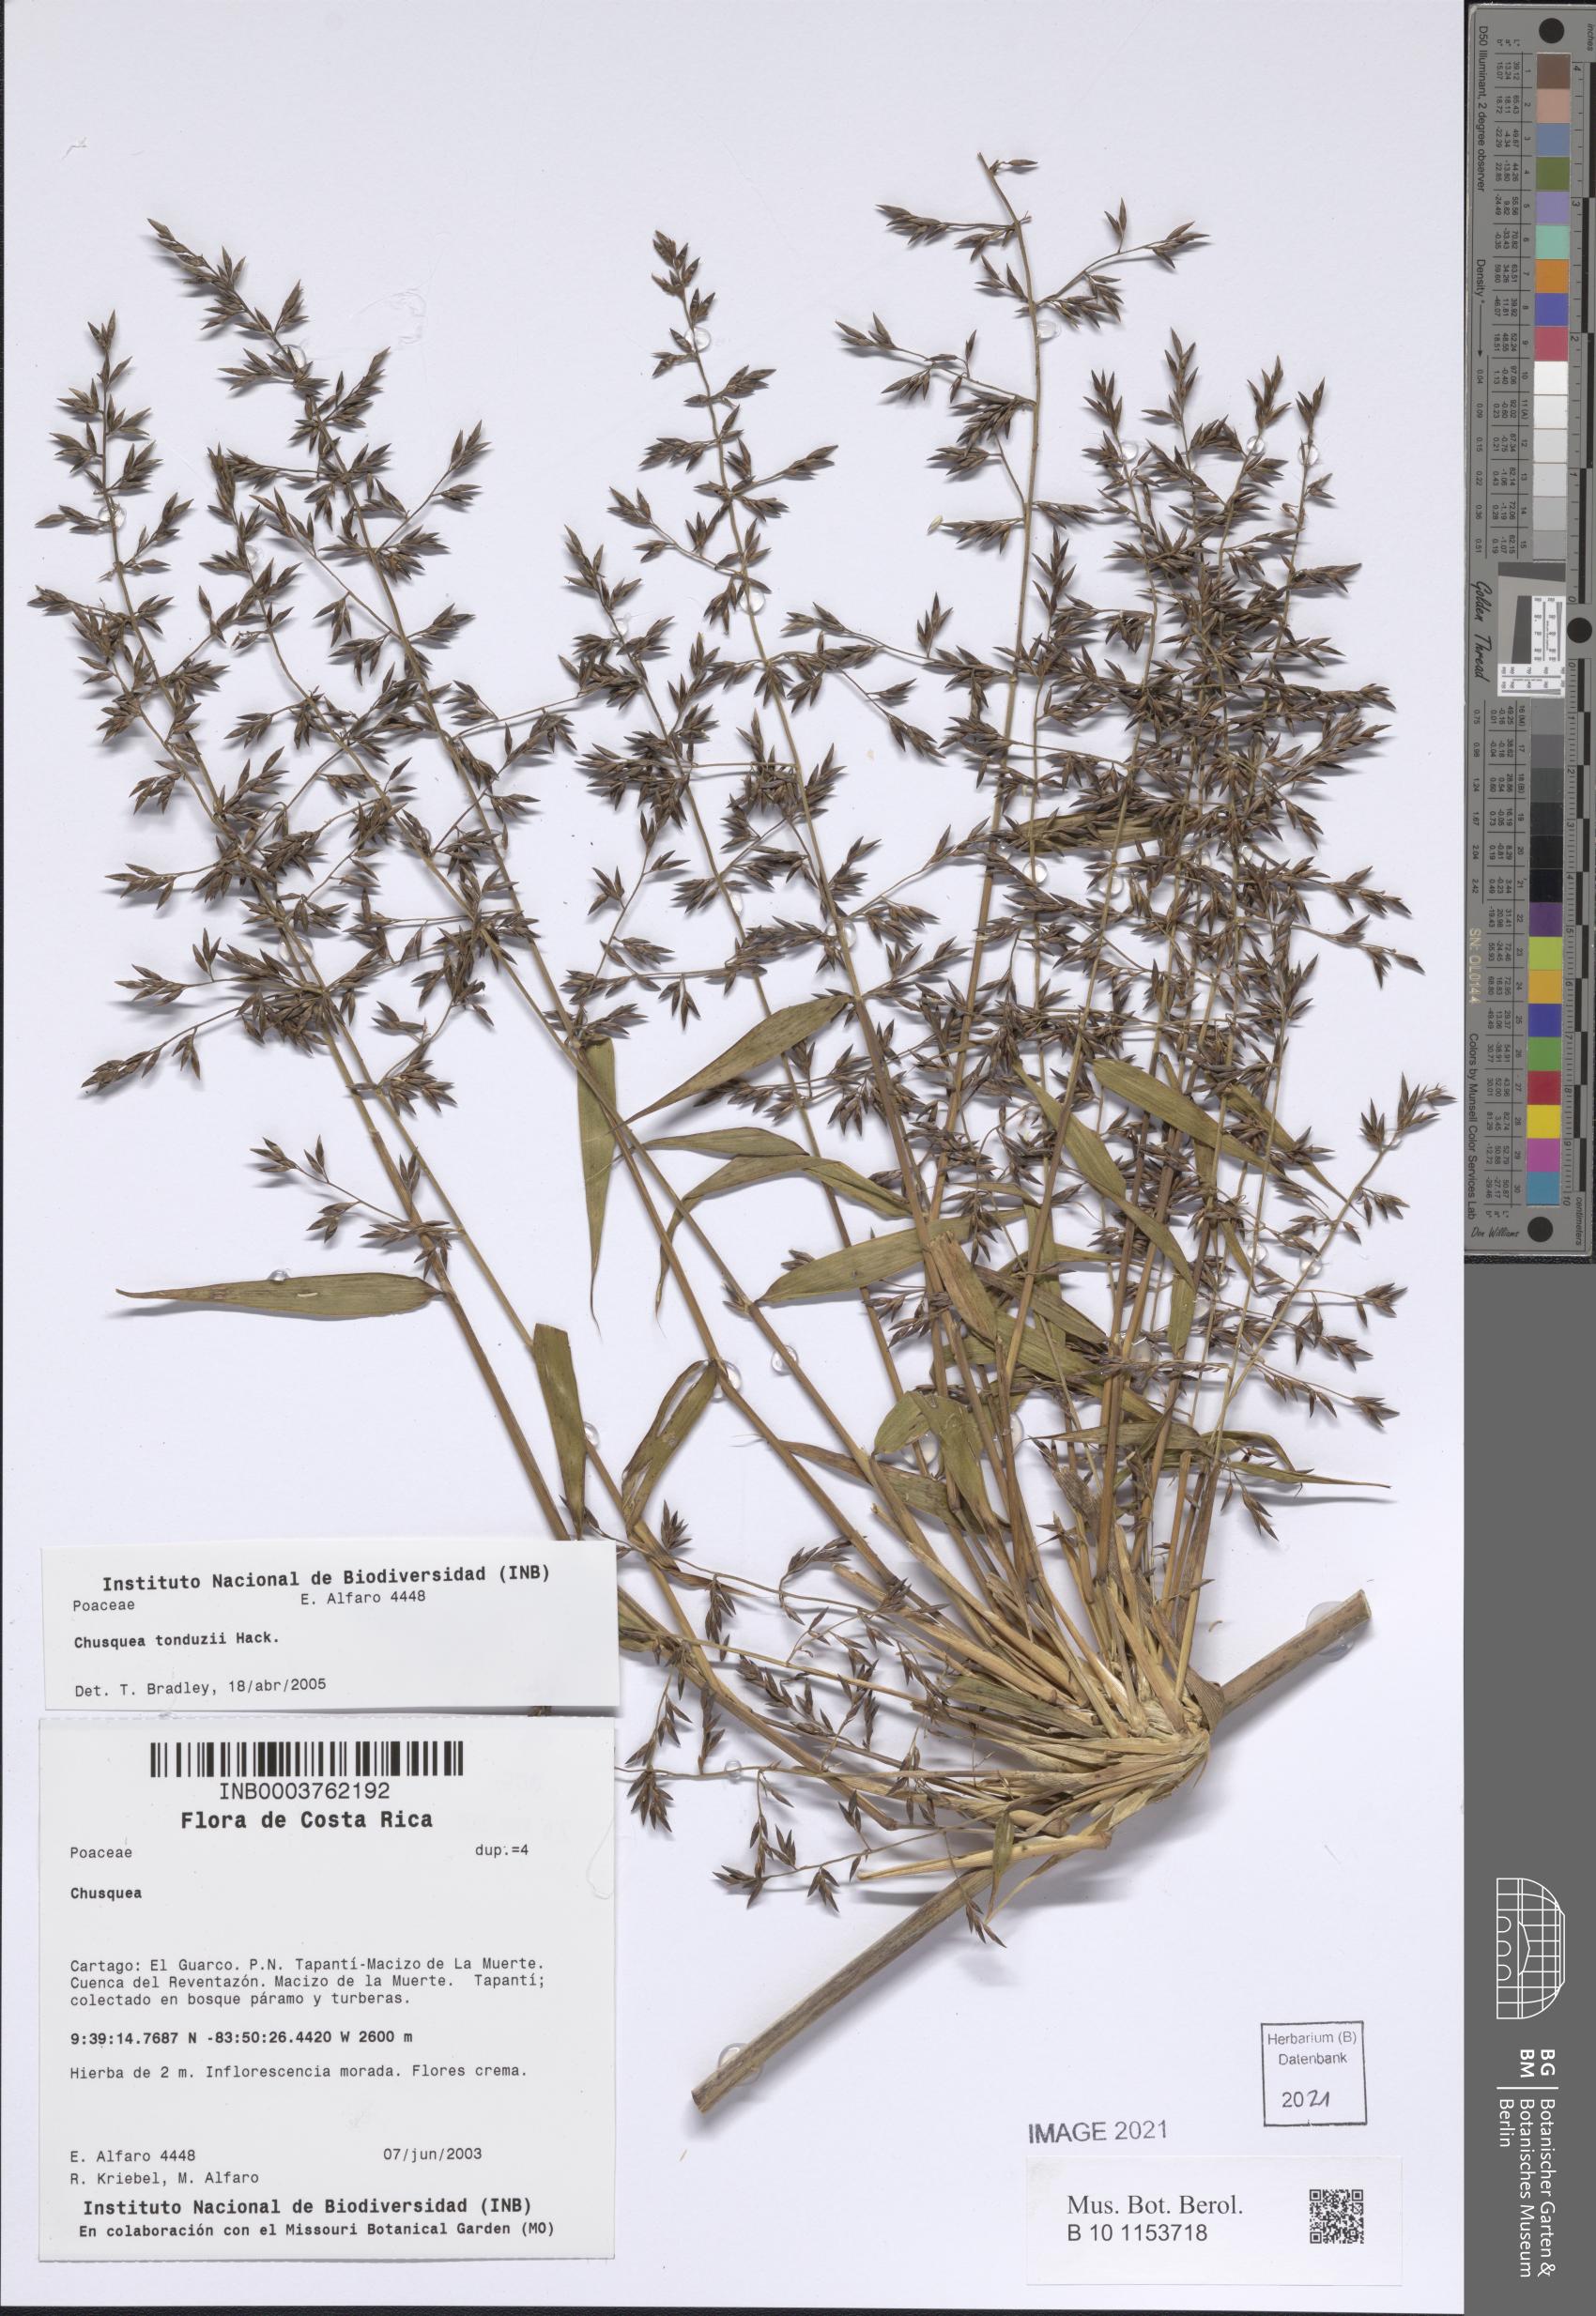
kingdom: Plantae
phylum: Tracheophyta
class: Liliopsida
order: Poales
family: Poaceae
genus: Chusquea
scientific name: Chusquea tonduzii
